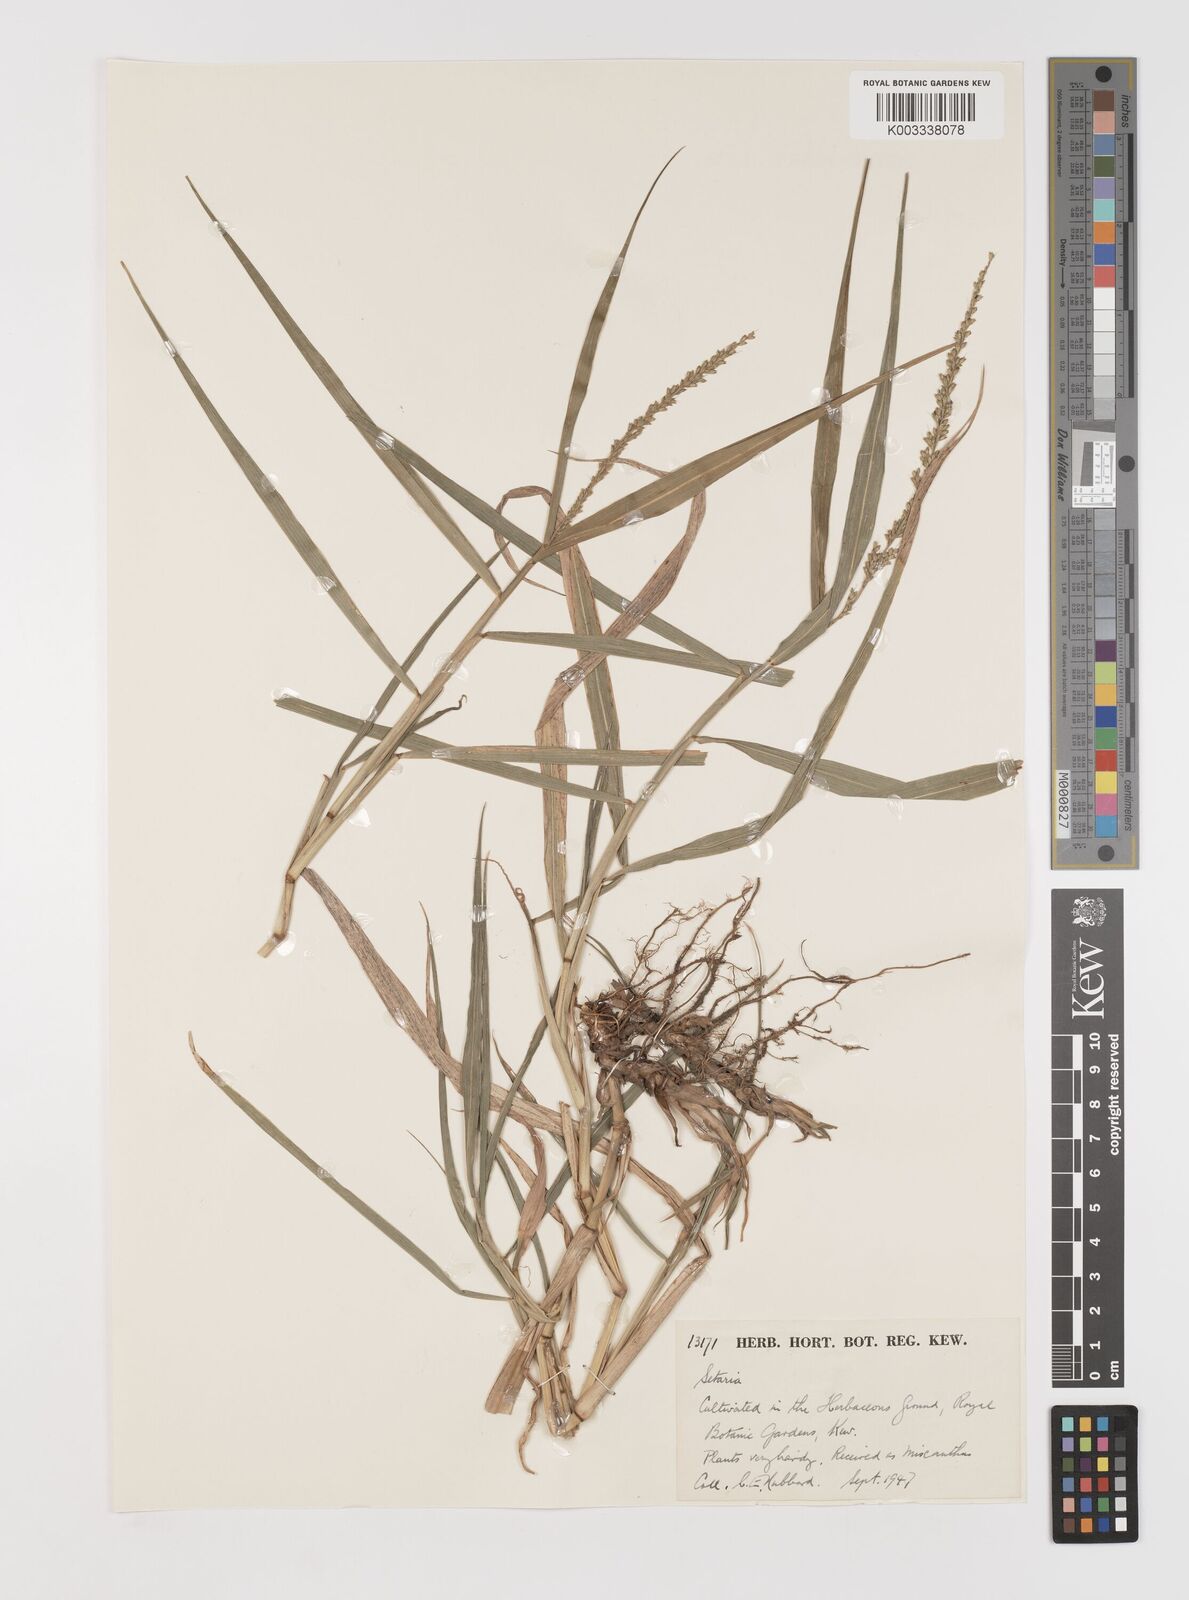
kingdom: Plantae
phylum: Tracheophyta
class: Liliopsida
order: Poales
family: Poaceae
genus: Setaria
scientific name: Setaria
